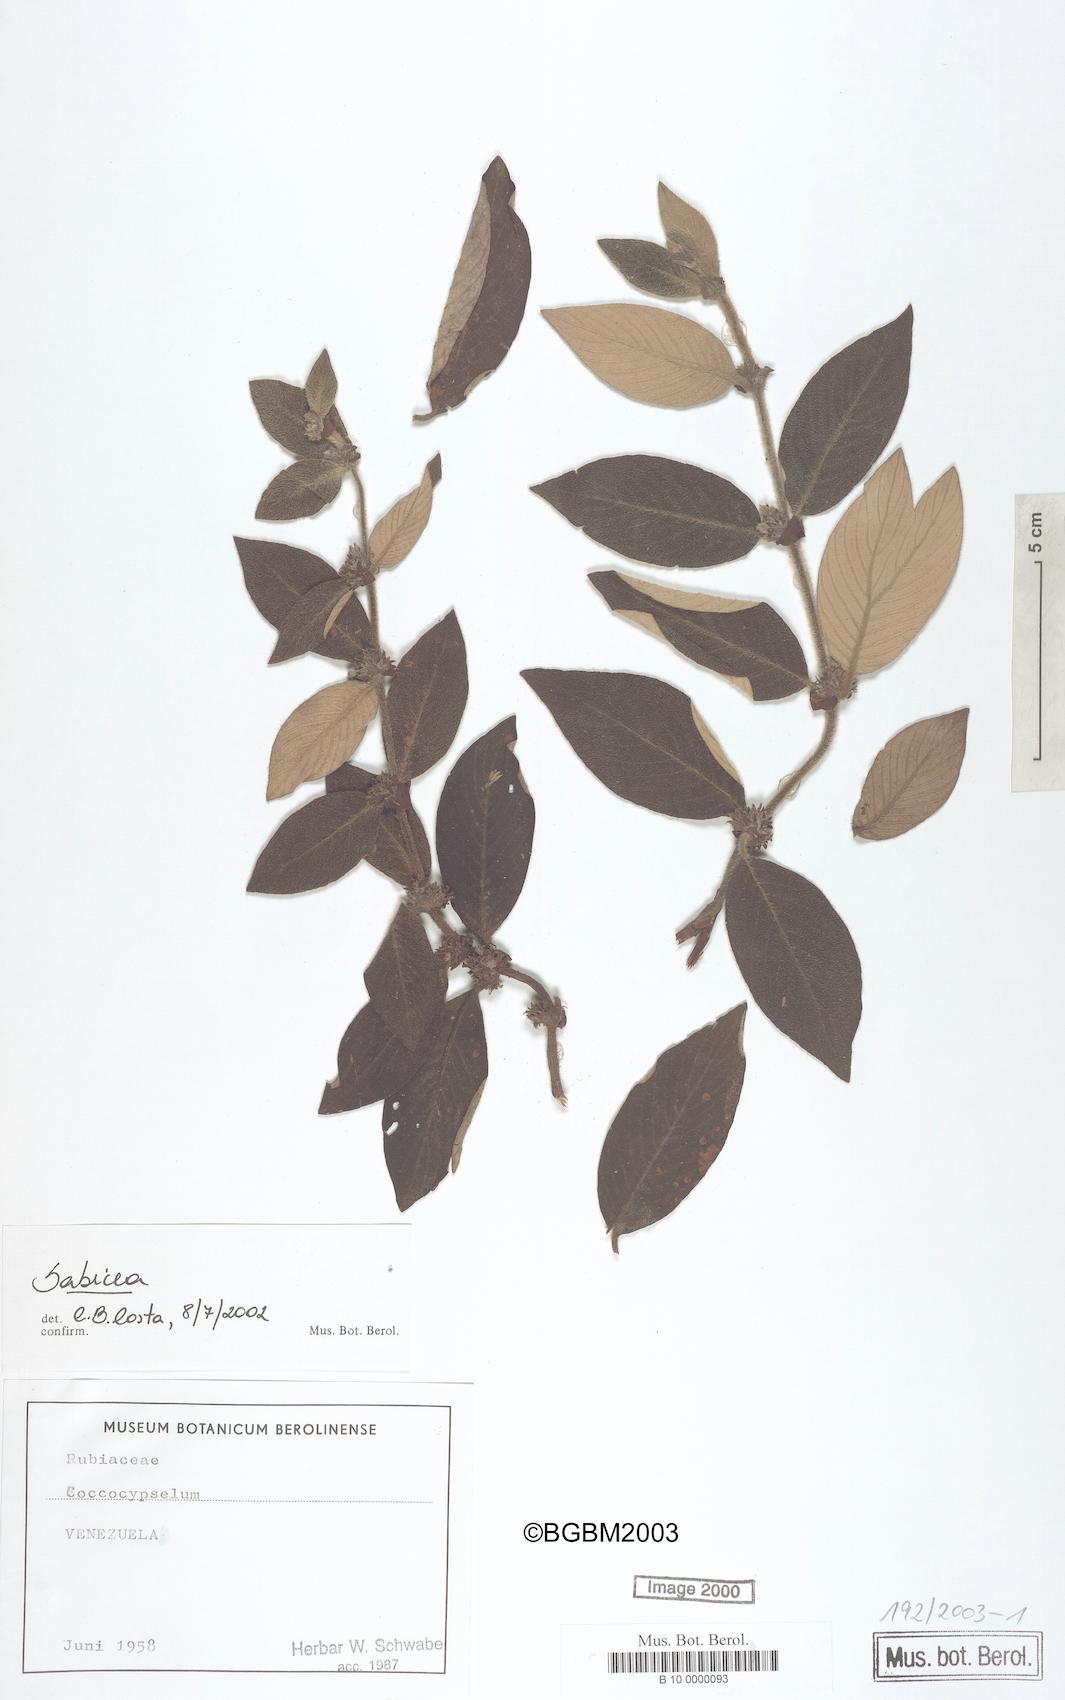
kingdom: Plantae
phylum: Tracheophyta
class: Magnoliopsida
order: Gentianales
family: Rubiaceae
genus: Sabicea
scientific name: Sabicea
